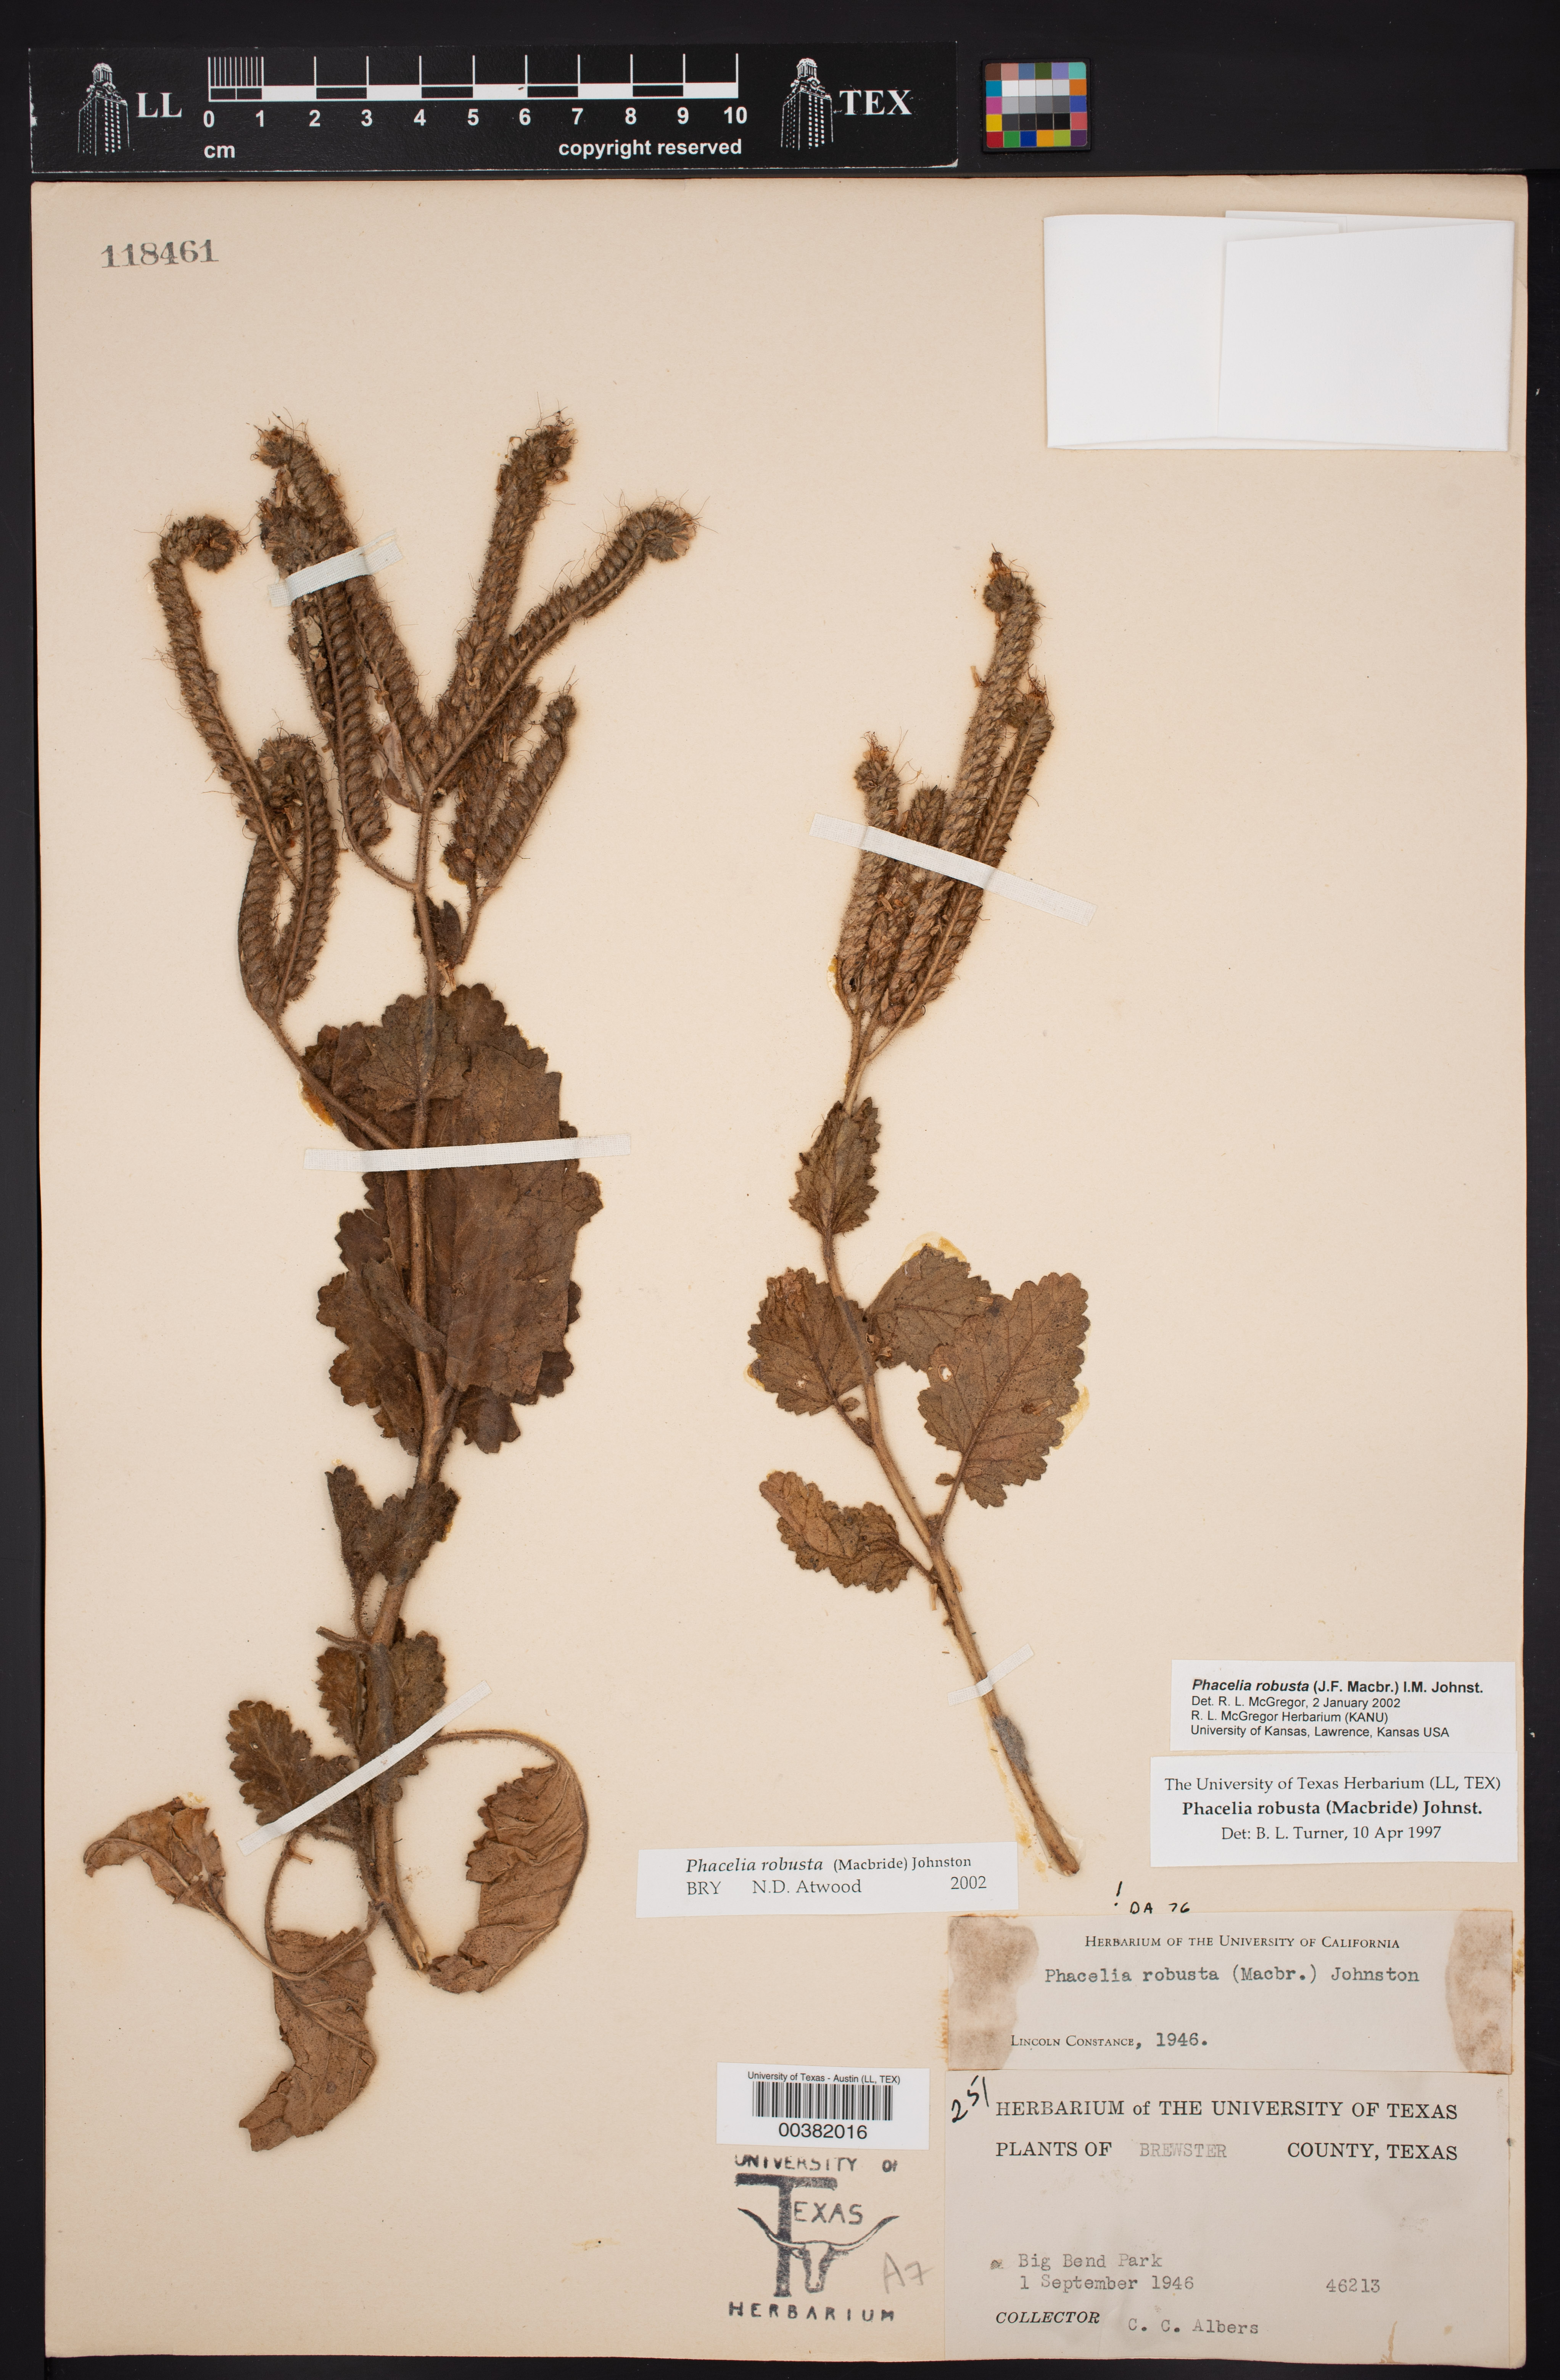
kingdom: Plantae
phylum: Tracheophyta
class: Magnoliopsida
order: Boraginales
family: Hydrophyllaceae
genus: Phacelia
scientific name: Phacelia robusta
